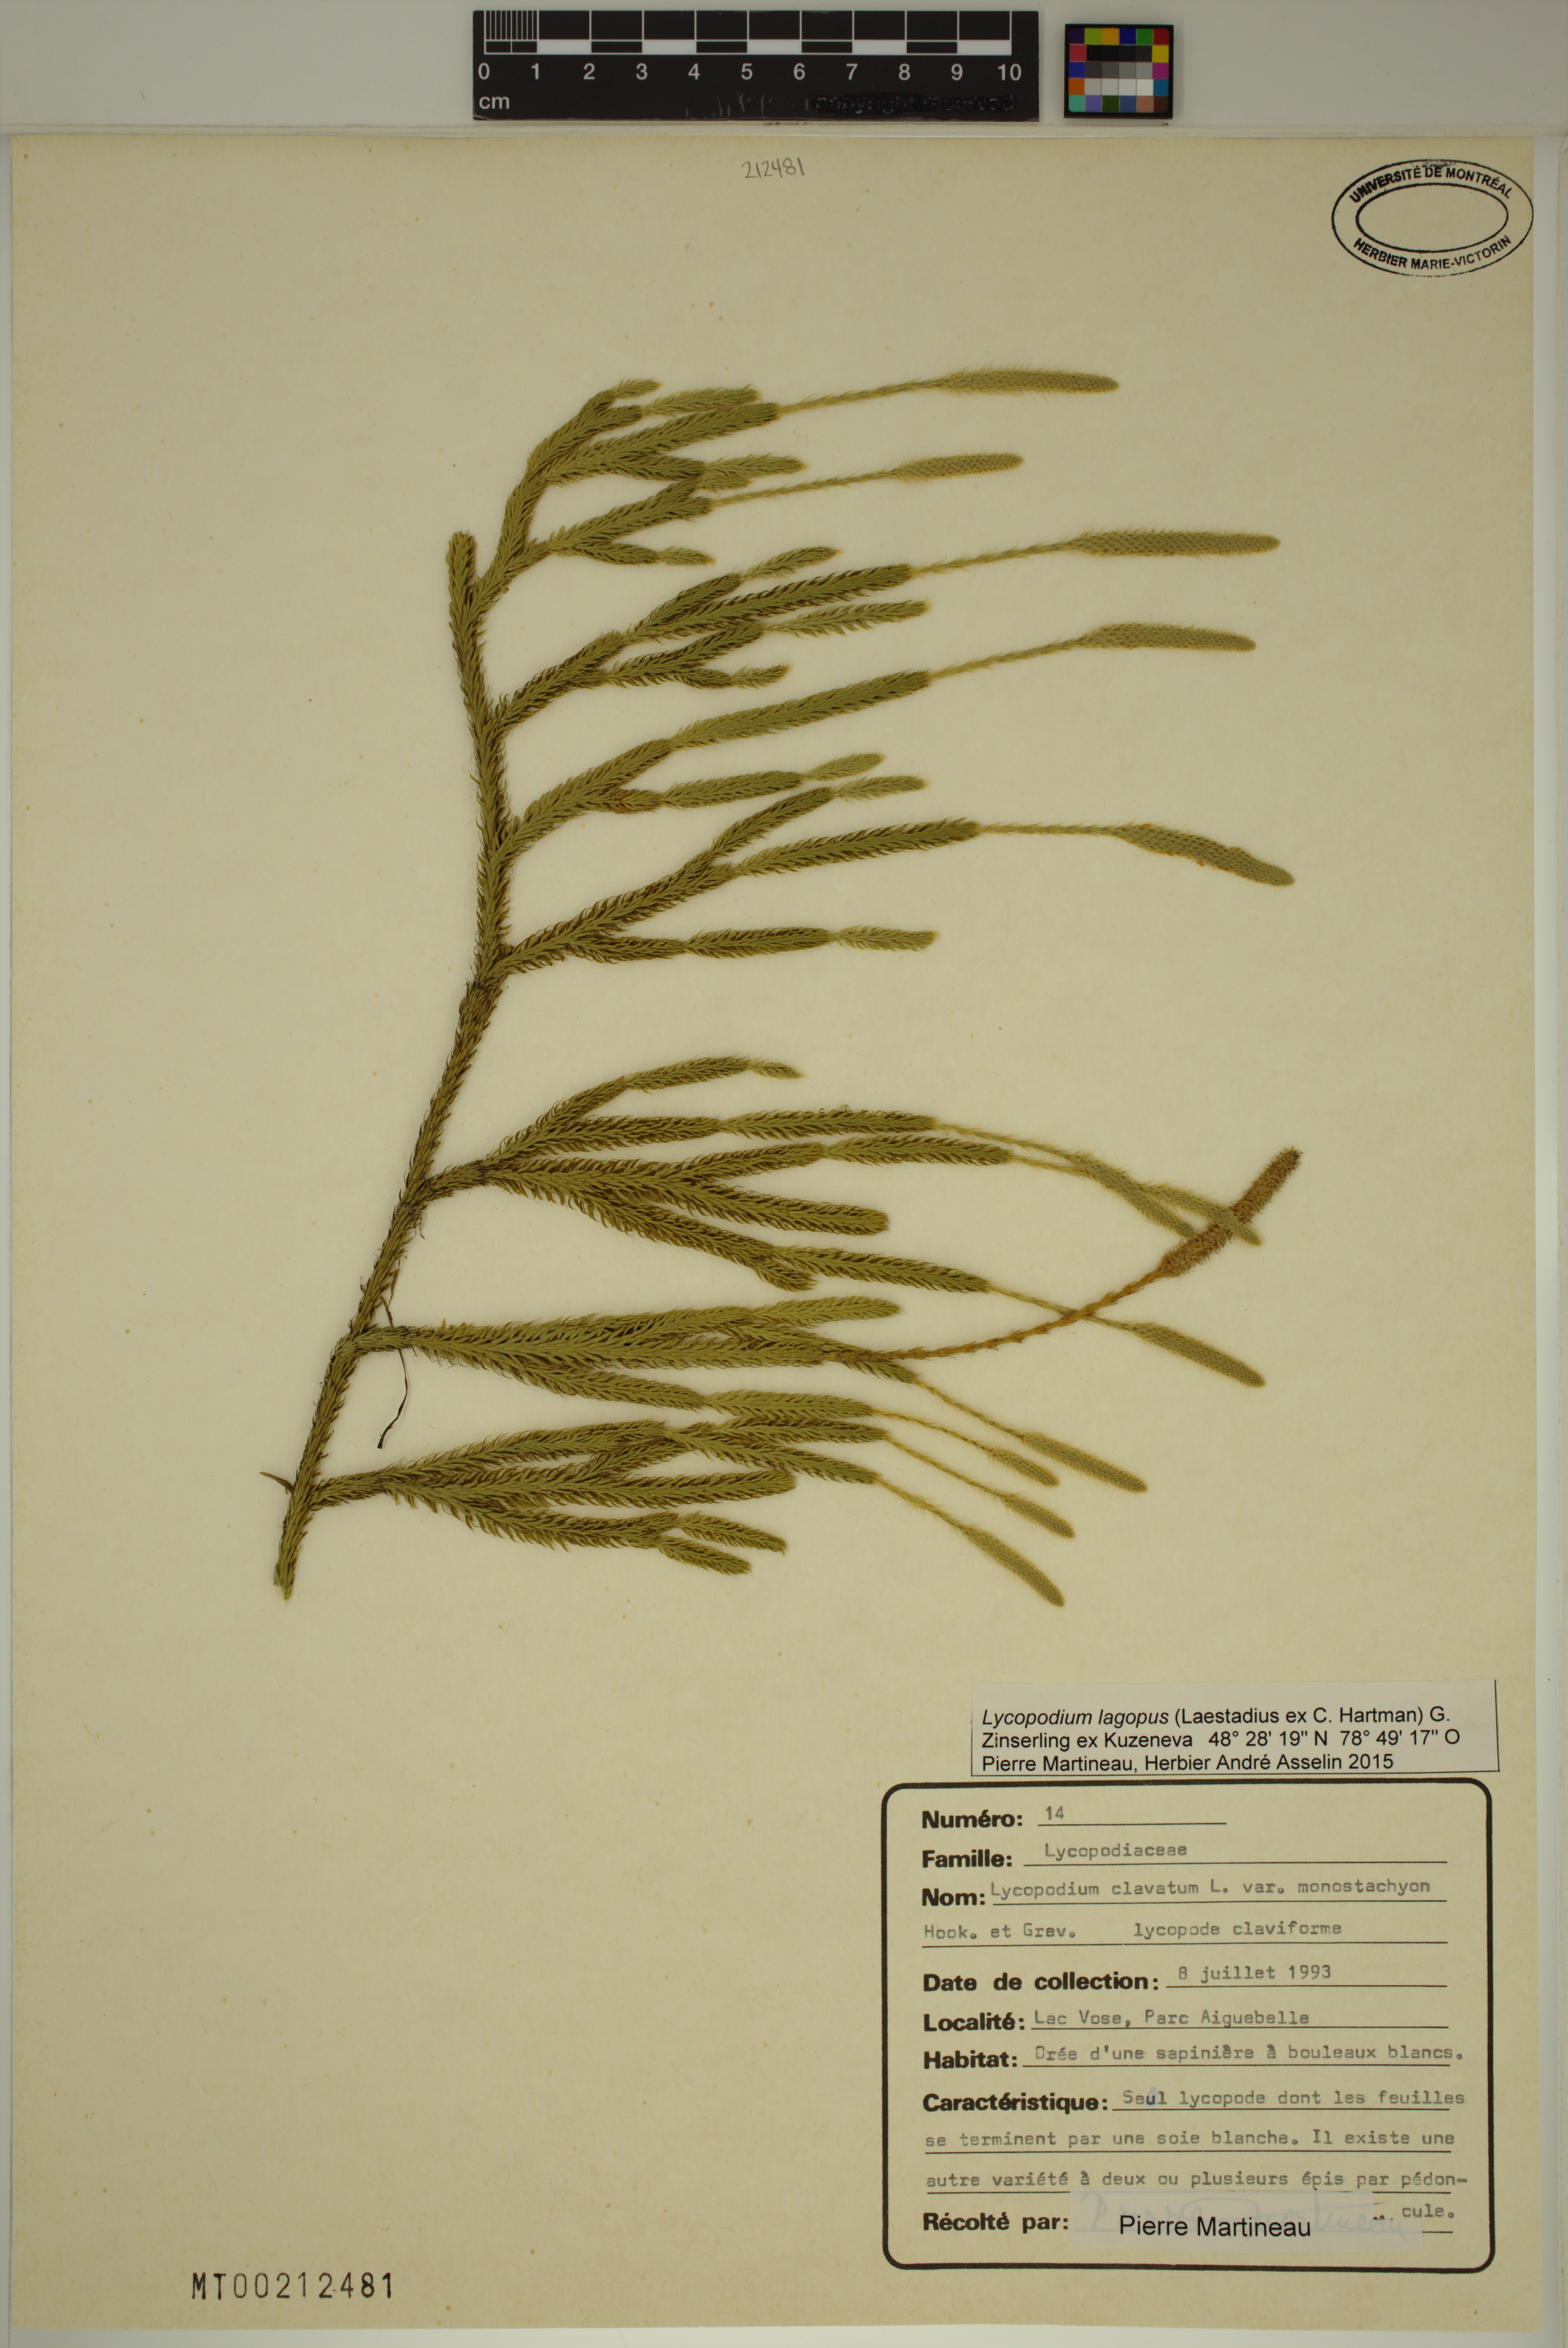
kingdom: Plantae
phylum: Tracheophyta
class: Lycopodiopsida
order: Lycopodiales
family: Lycopodiaceae
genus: Lycopodium
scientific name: Lycopodium lagopus
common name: One-cone clubmoss
